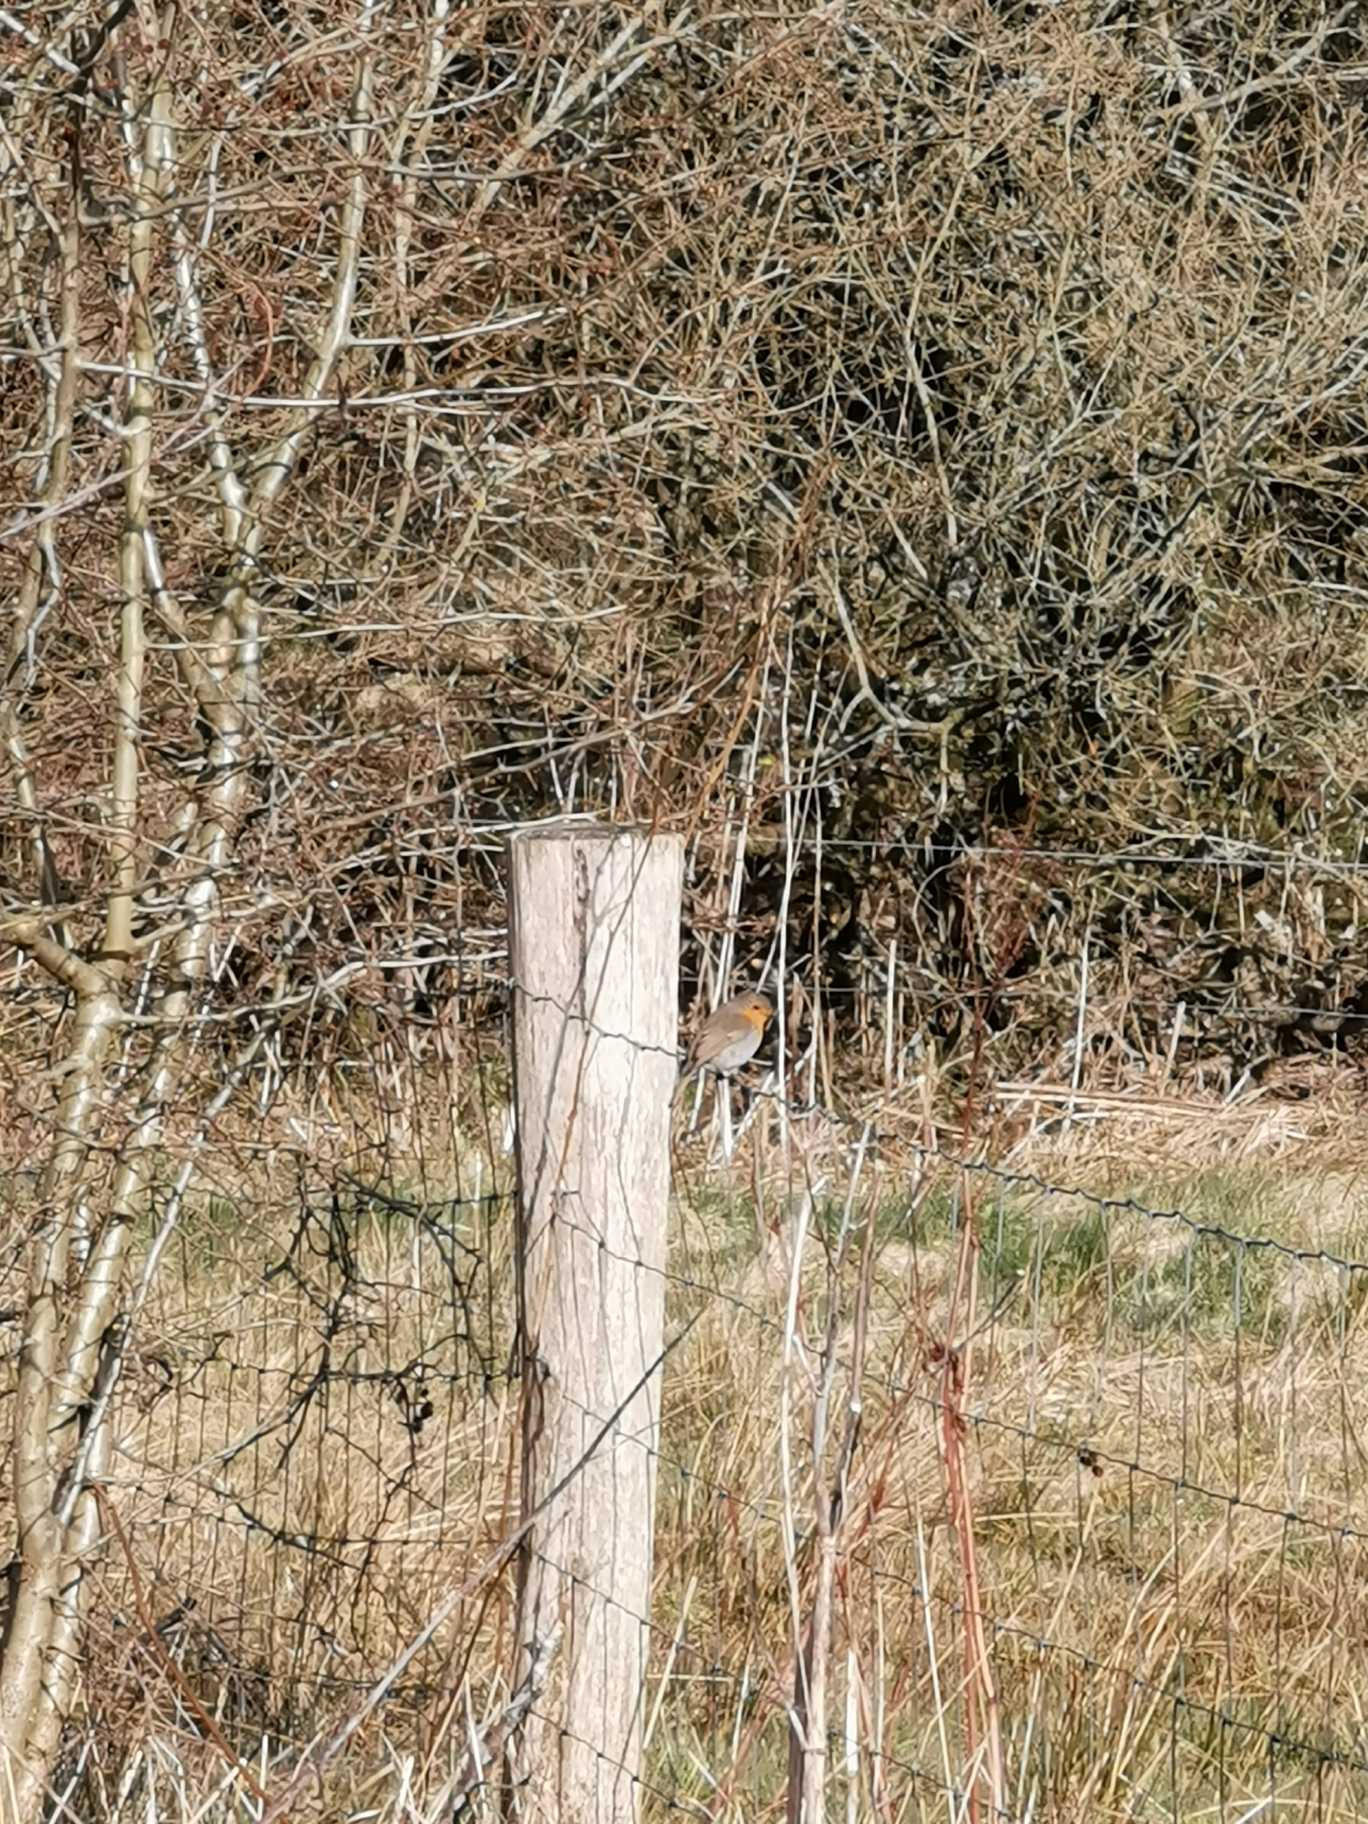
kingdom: Animalia
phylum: Chordata
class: Aves
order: Passeriformes
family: Muscicapidae
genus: Erithacus
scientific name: Erithacus rubecula
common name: Rødhals/rødkælk
